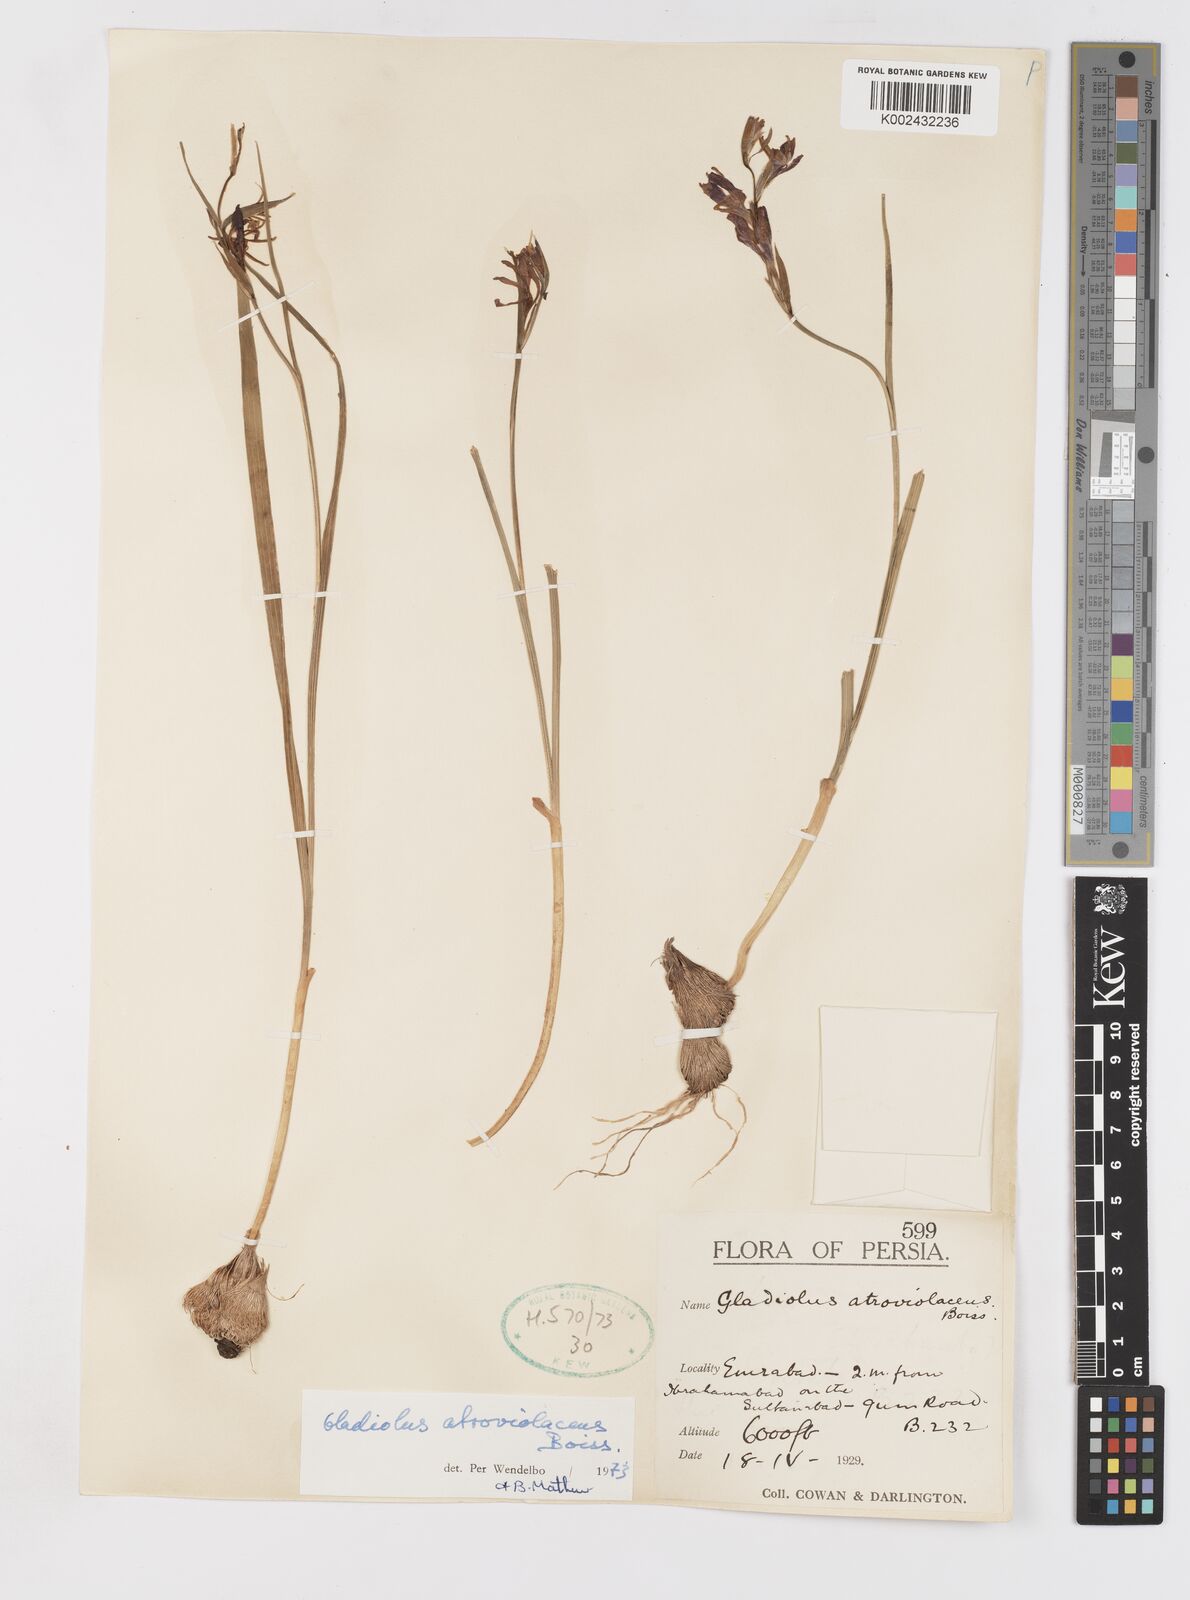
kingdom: Plantae
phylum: Tracheophyta
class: Liliopsida
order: Asparagales
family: Iridaceae
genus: Gladiolus
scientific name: Gladiolus atroviolaceus
